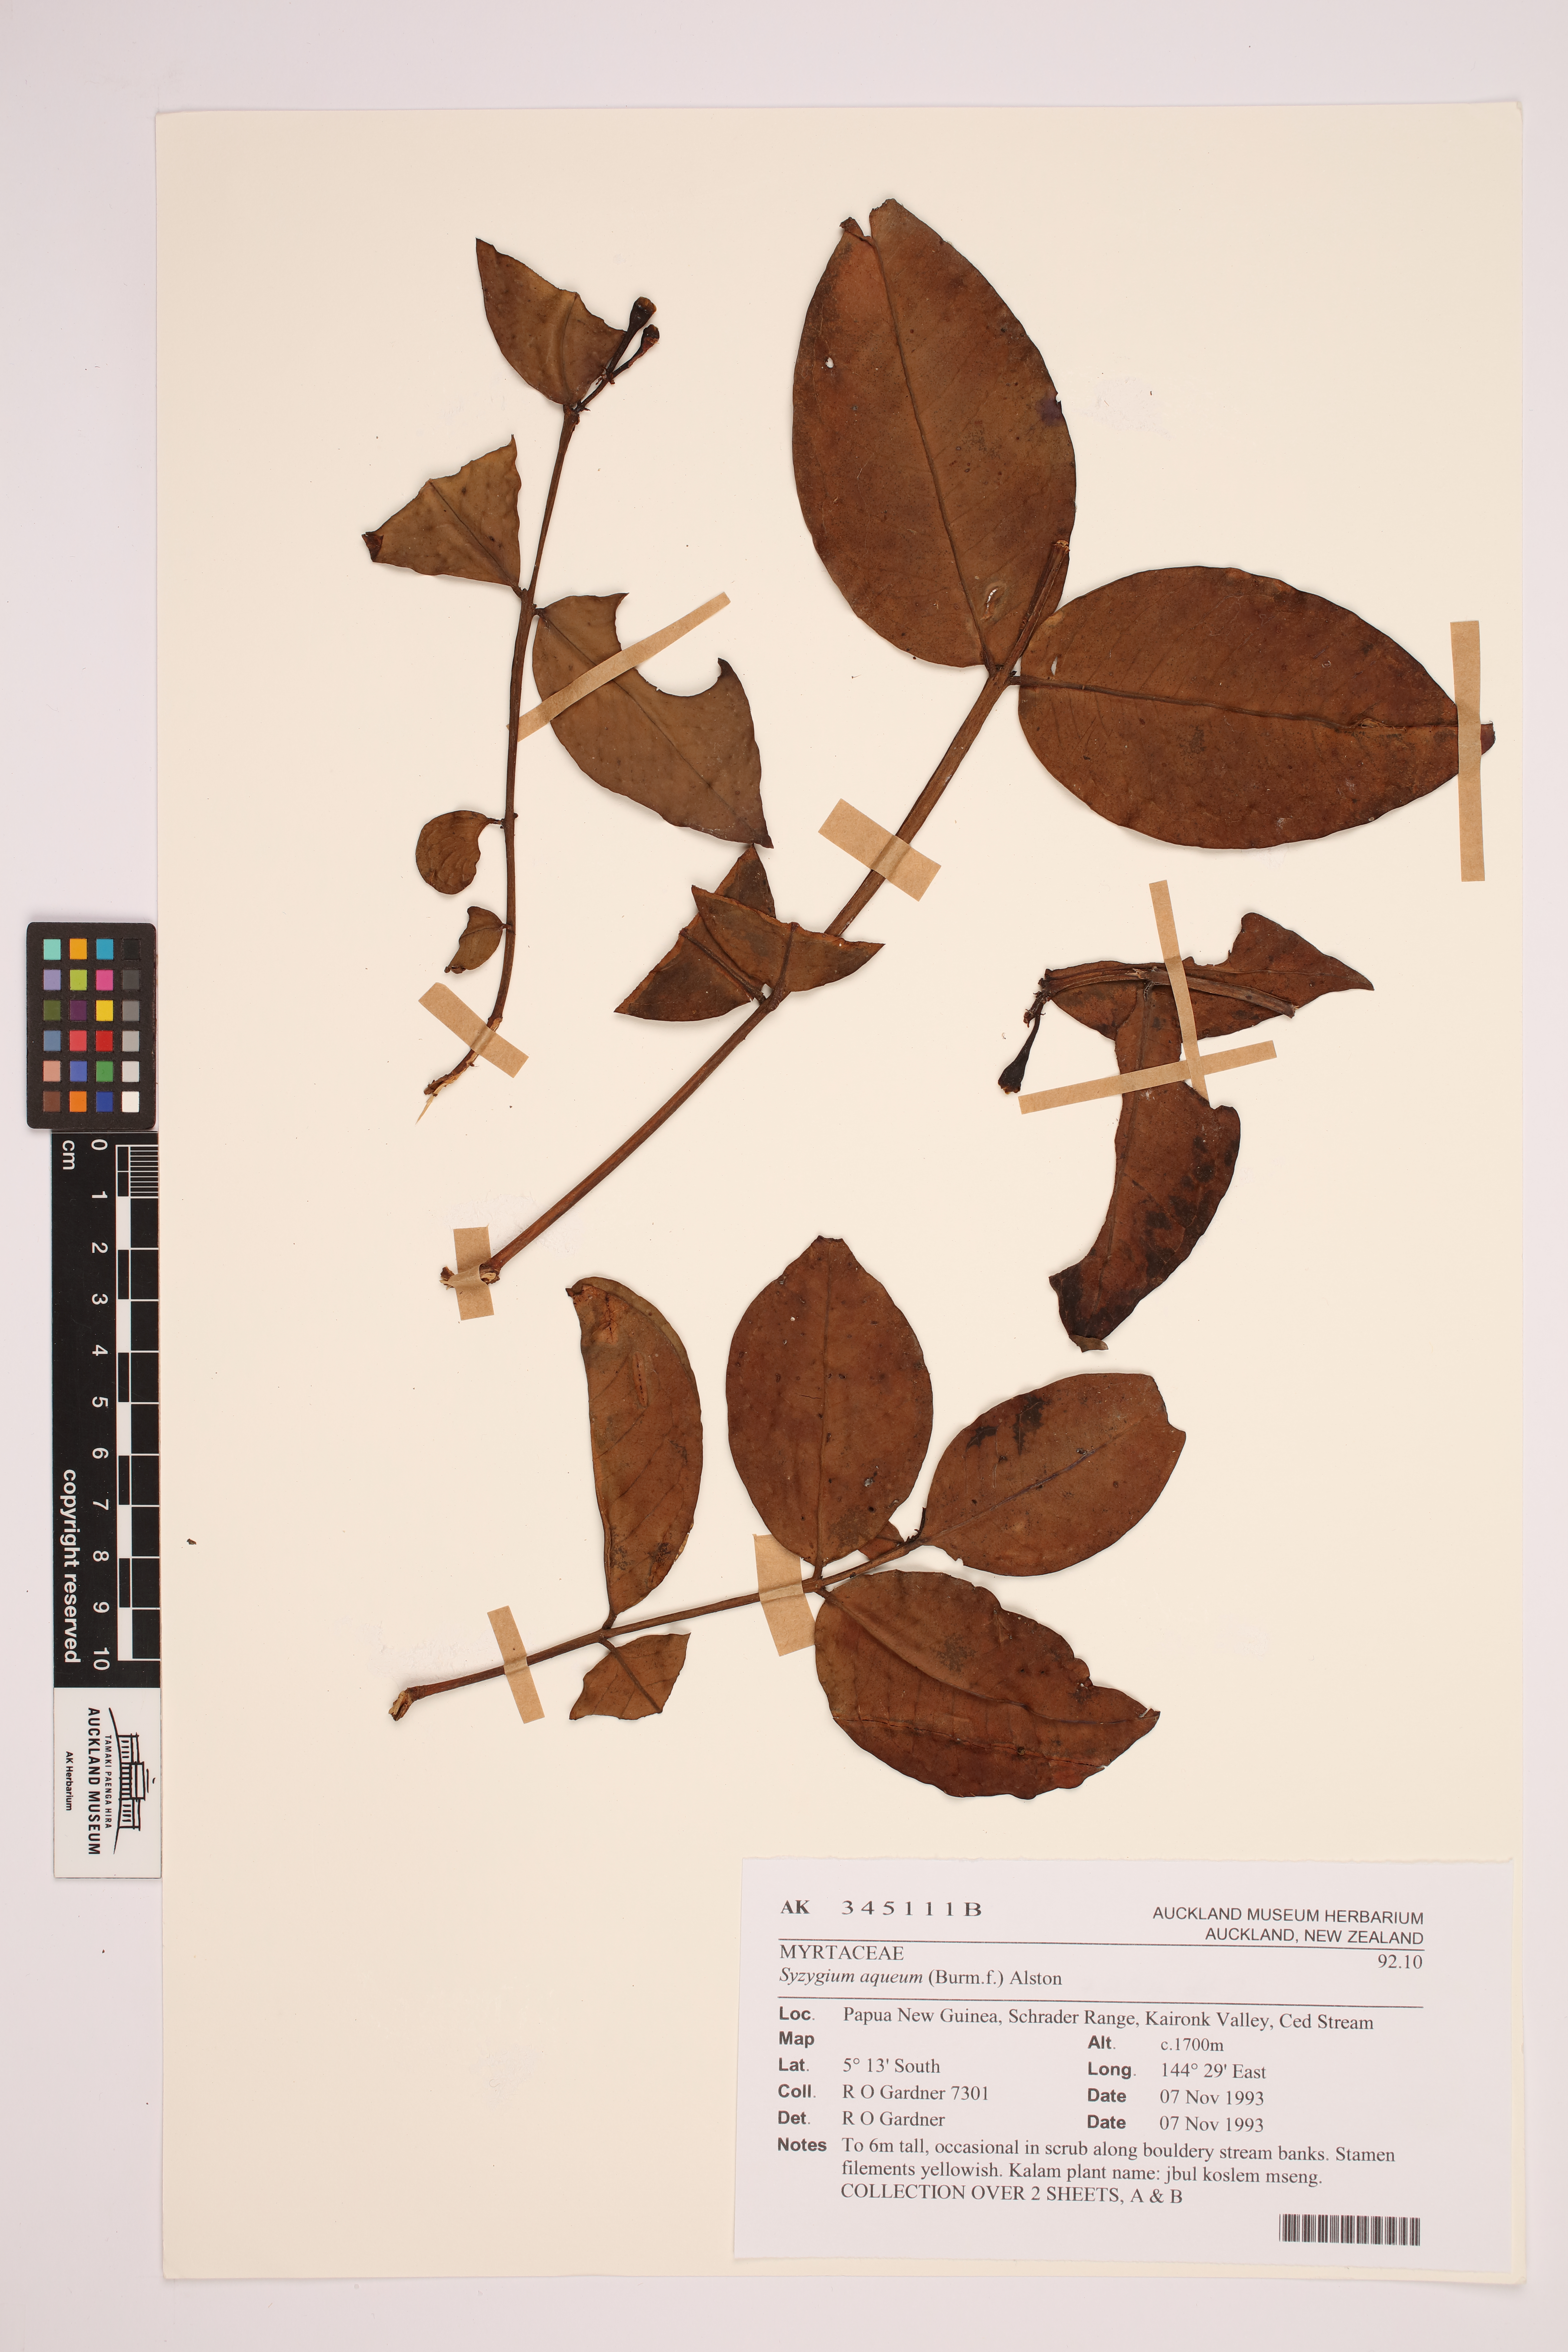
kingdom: Plantae
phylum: Tracheophyta
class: Magnoliopsida
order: Myrtales
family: Myrtaceae
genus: Syzygium
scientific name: Syzygium aqueum
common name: Water-apple
